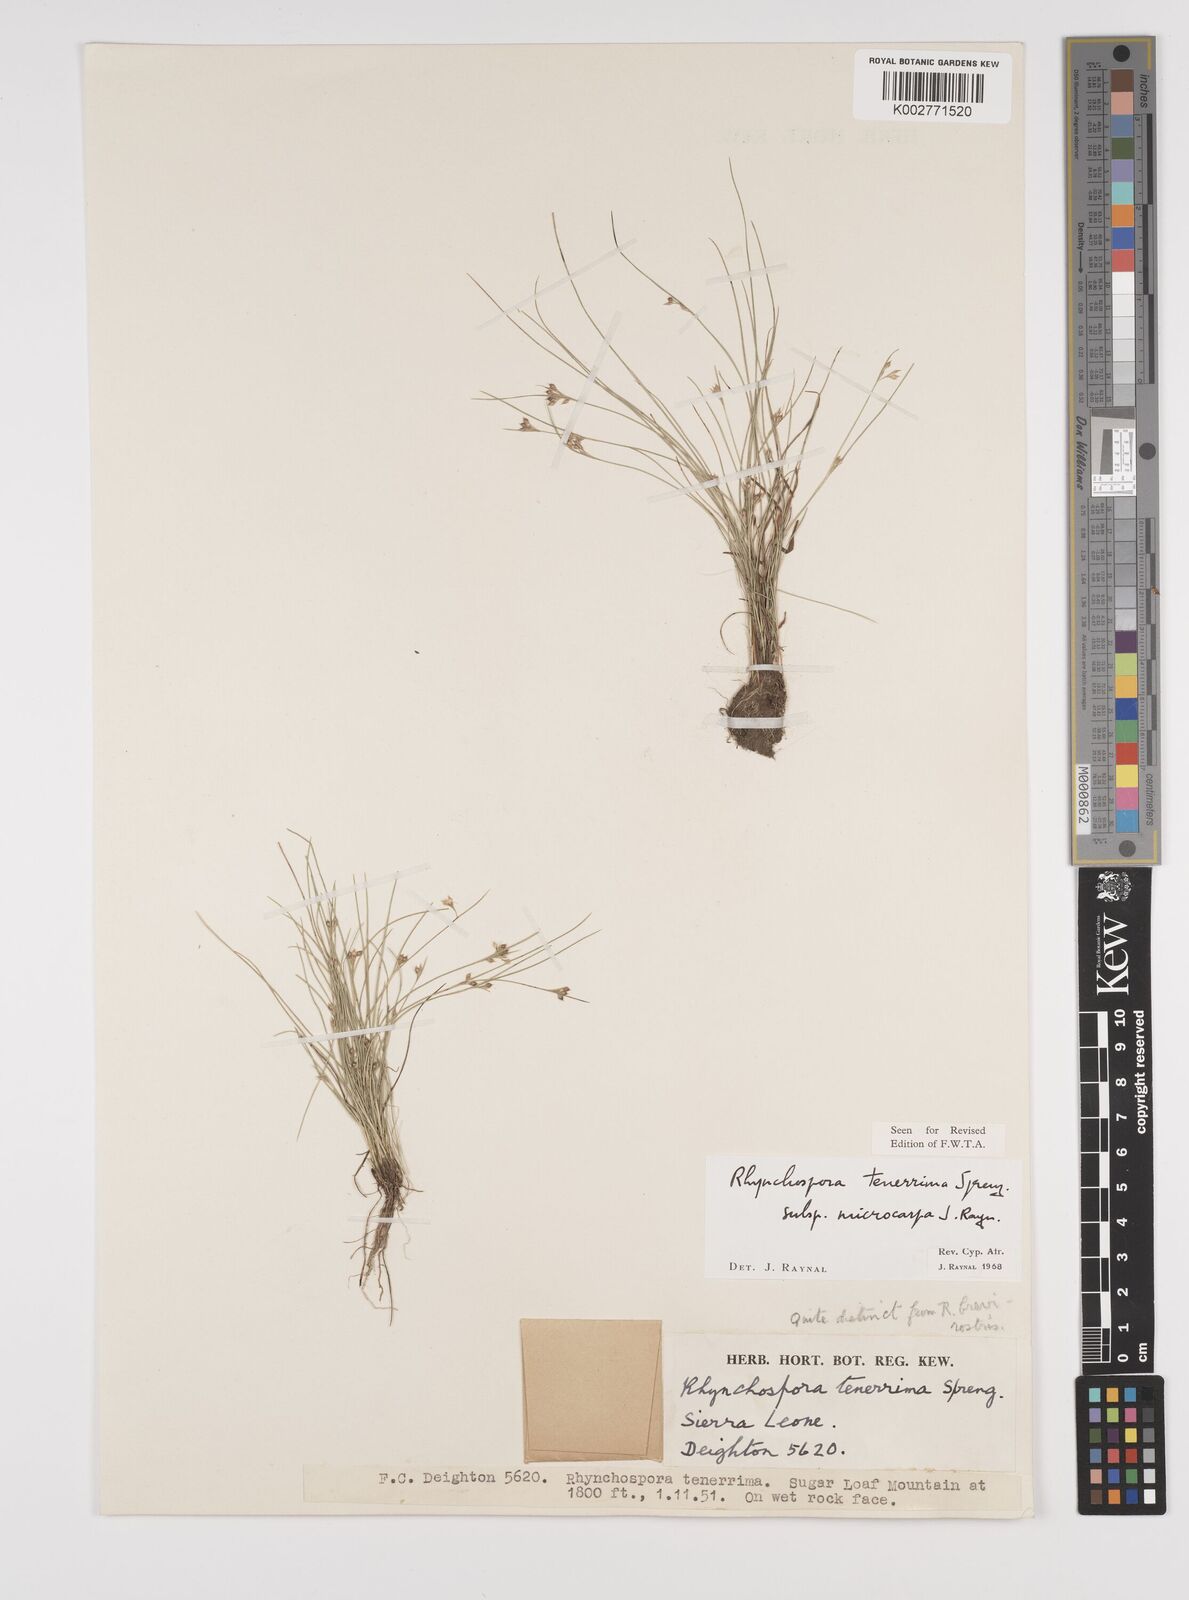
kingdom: Plantae
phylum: Tracheophyta
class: Liliopsida
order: Poales
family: Cyperaceae
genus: Rhynchospora
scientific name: Rhynchospora tenerrima
